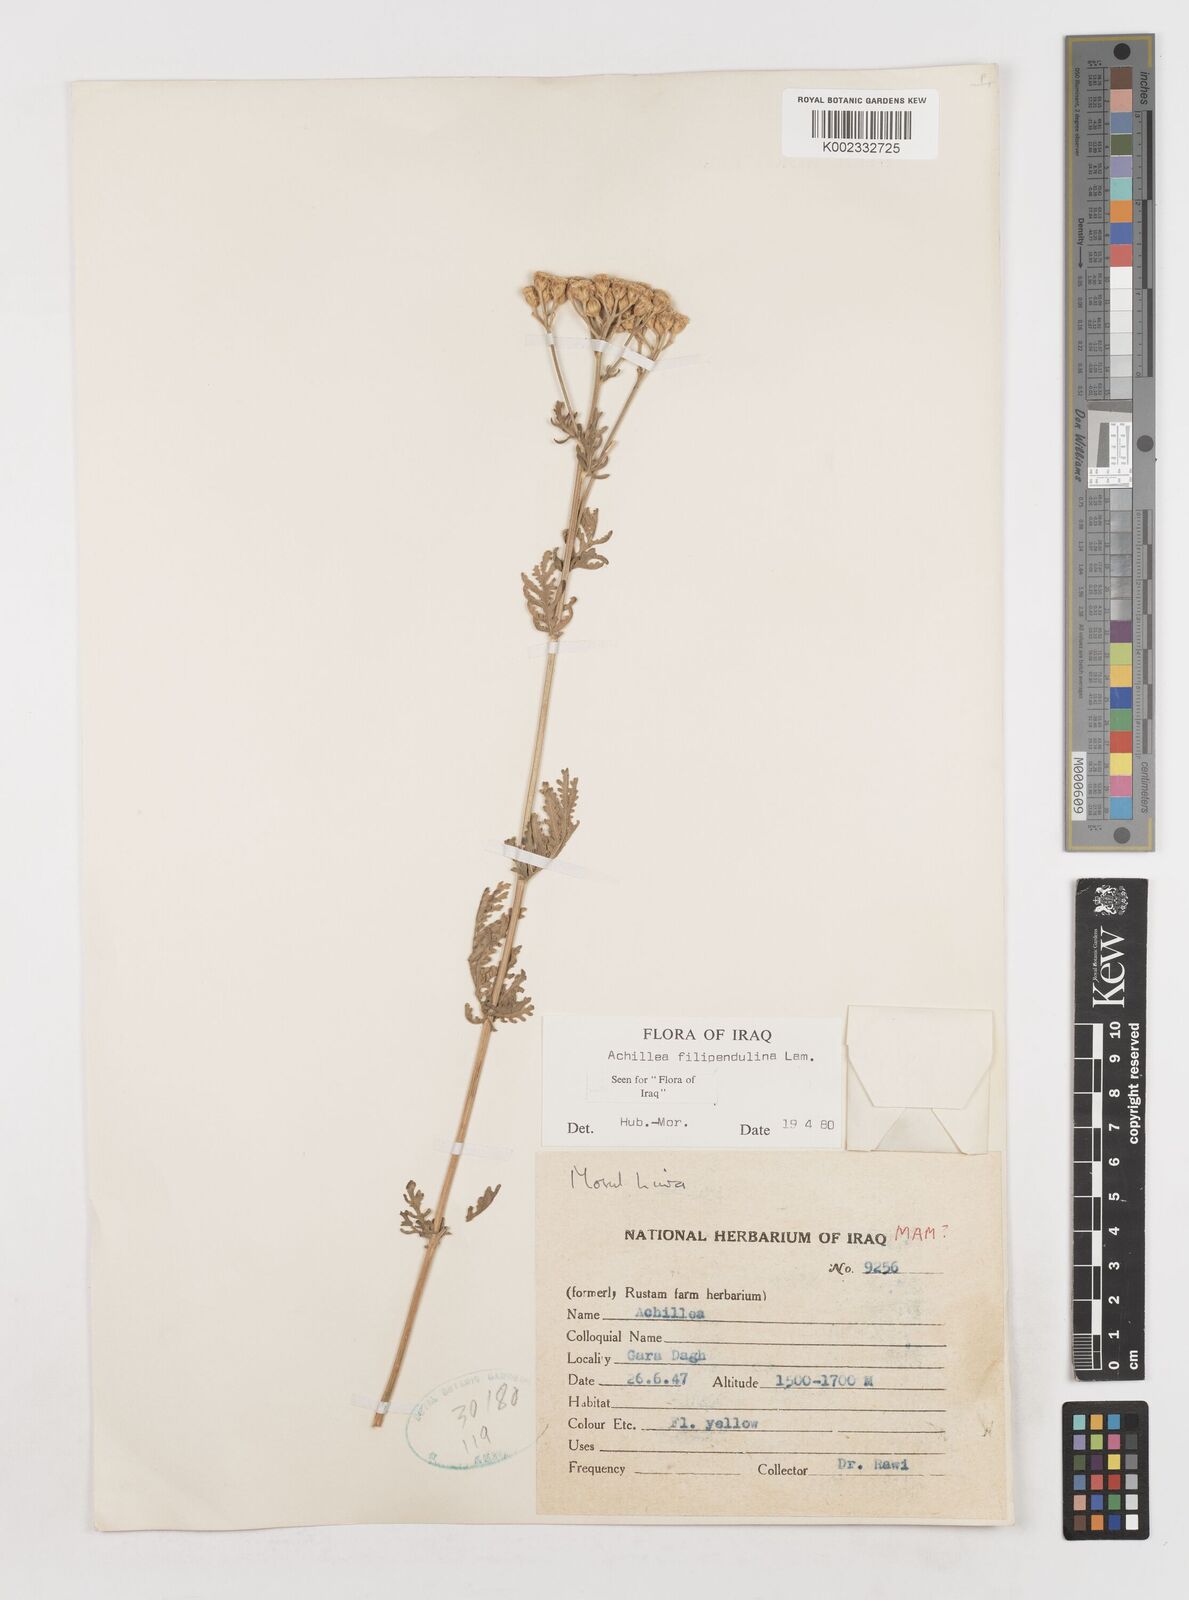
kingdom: Plantae
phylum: Tracheophyta
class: Magnoliopsida
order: Asterales
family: Asteraceae
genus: Achillea
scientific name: Achillea filipendulina
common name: Fernleaf yarrow
